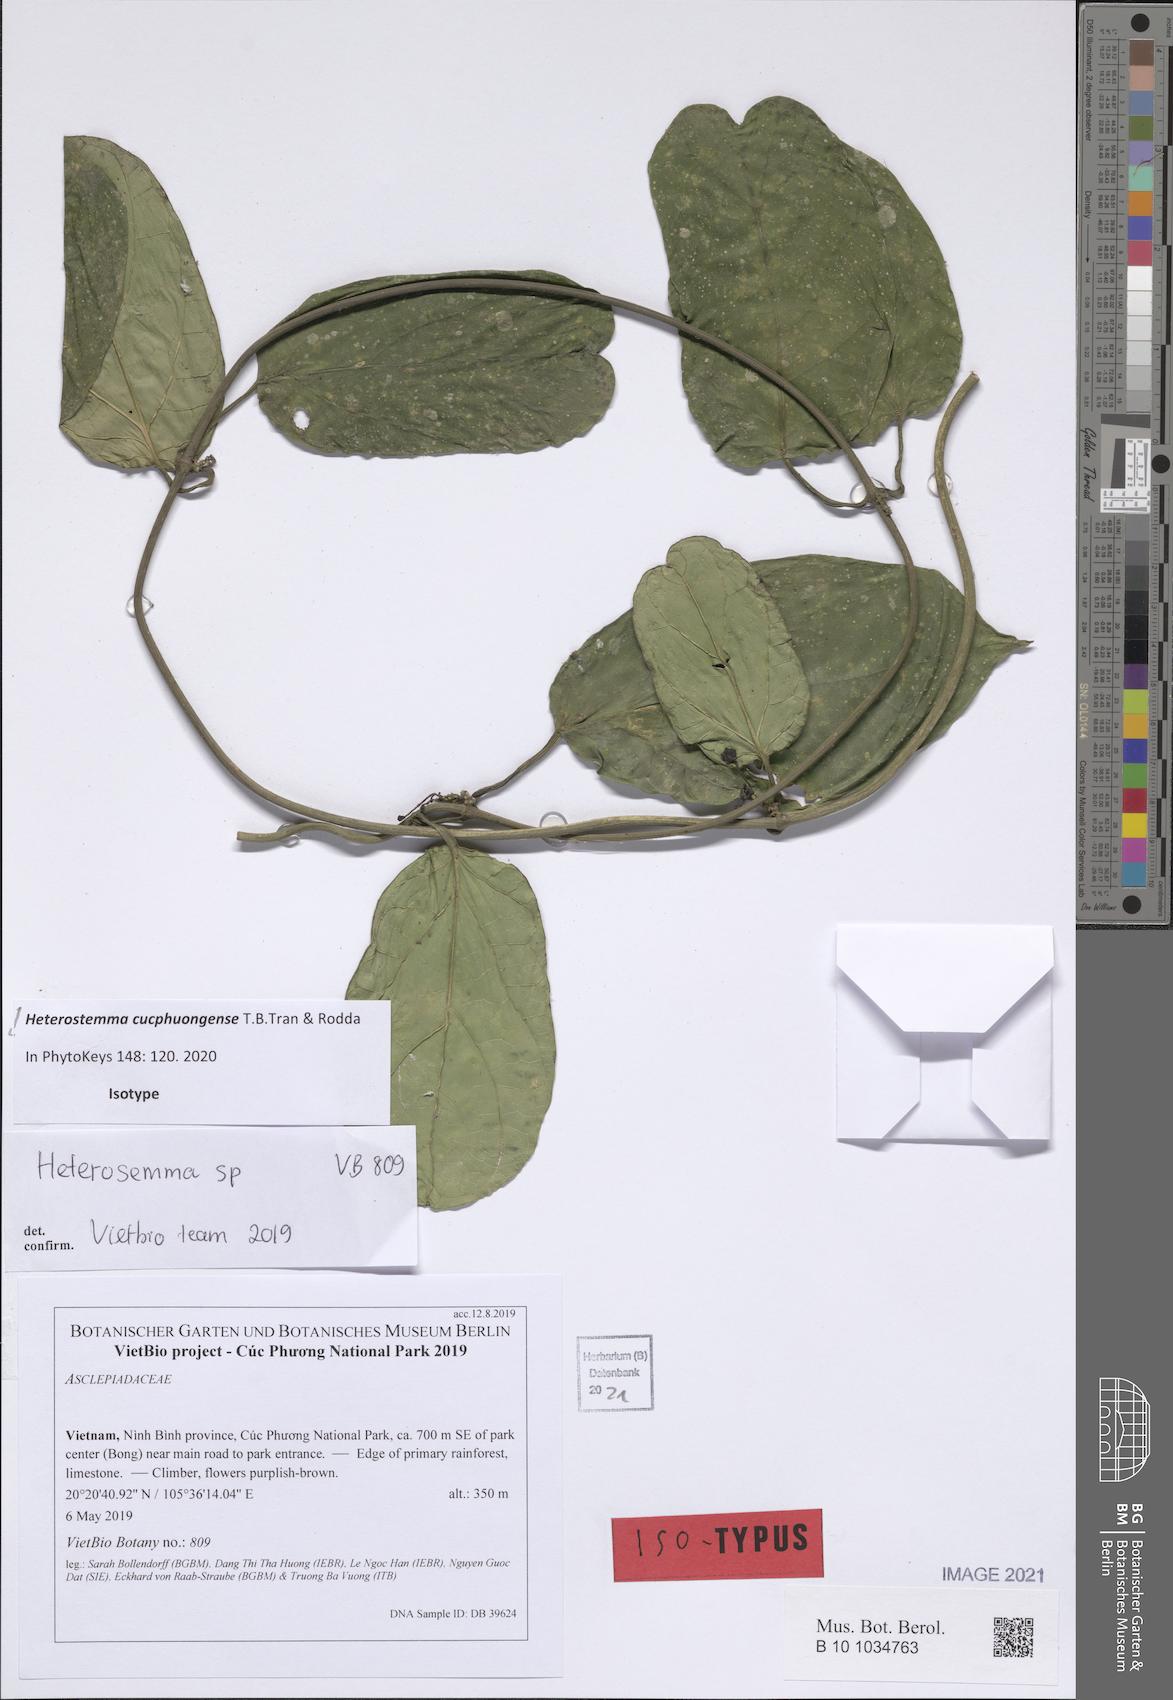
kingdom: Plantae
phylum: Tracheophyta
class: Magnoliopsida
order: Gentianales
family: Apocynaceae
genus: Heterostemma
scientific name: Heterostemma cucphuongense
